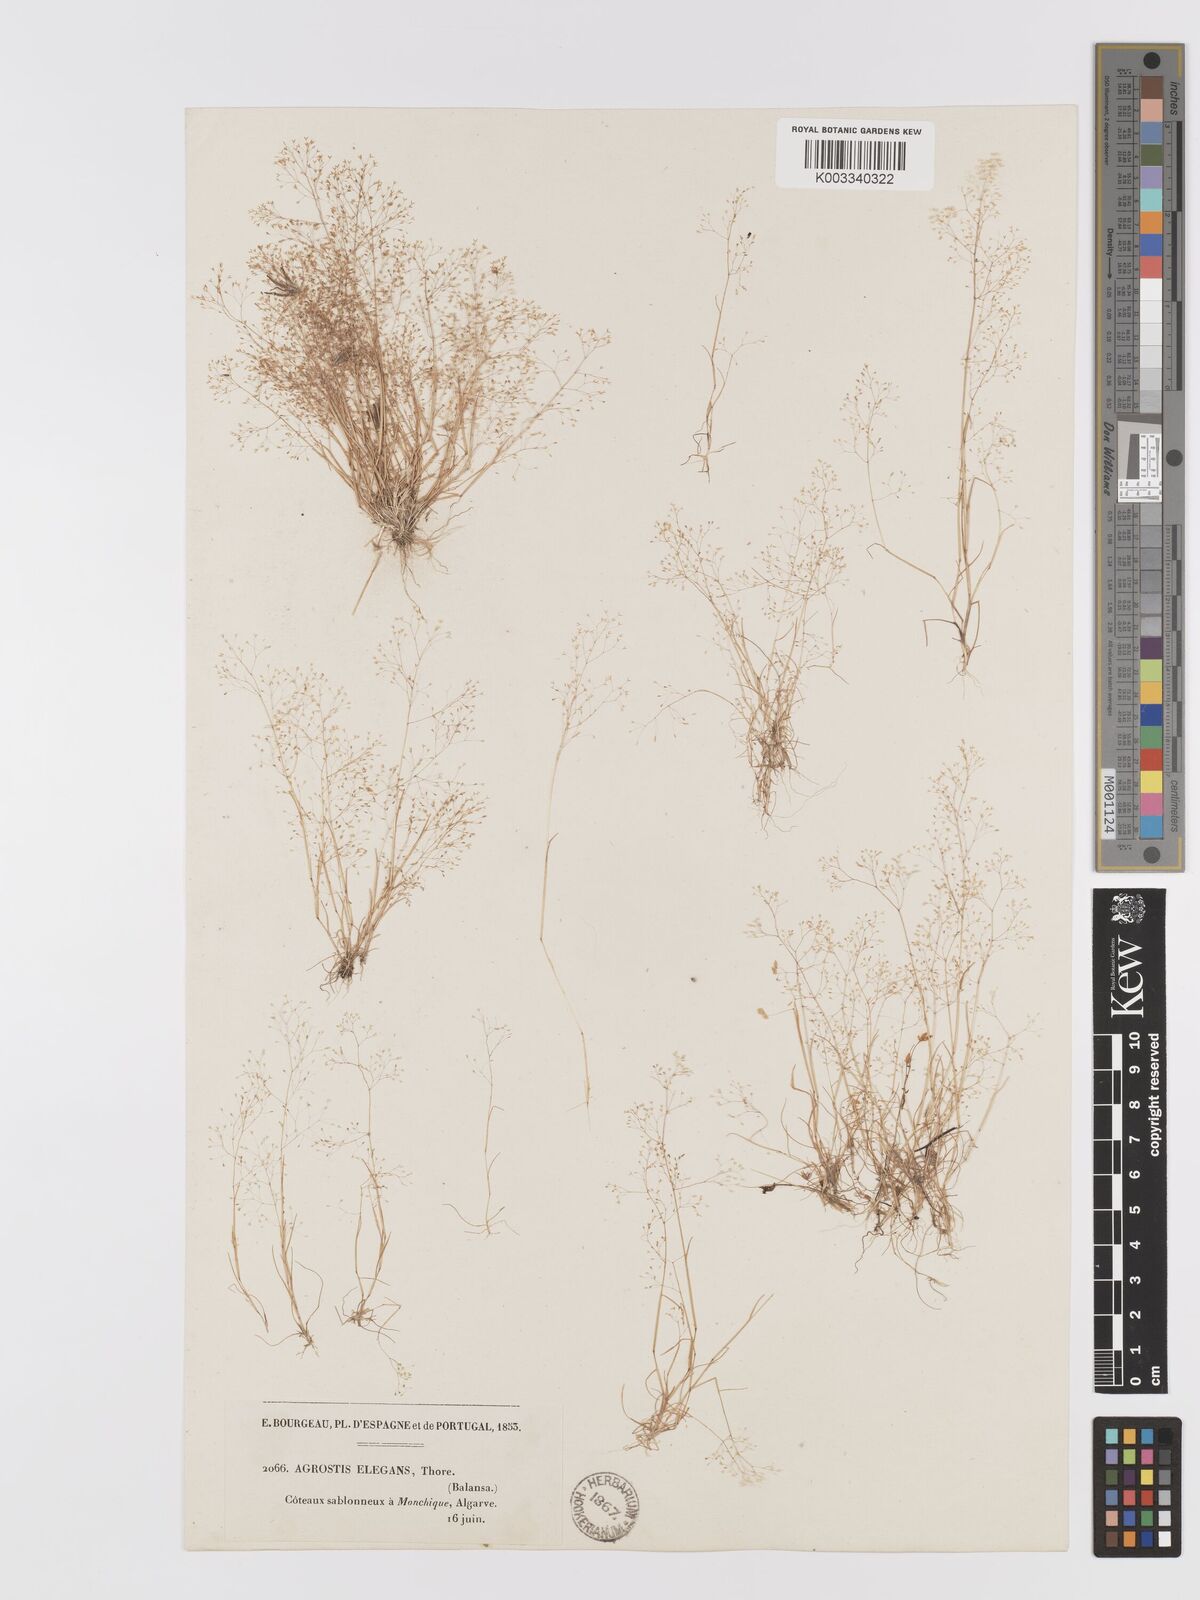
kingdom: Plantae
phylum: Tracheophyta
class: Liliopsida
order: Poales
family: Poaceae
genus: Agrostis
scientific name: Agrostis tenerrima
